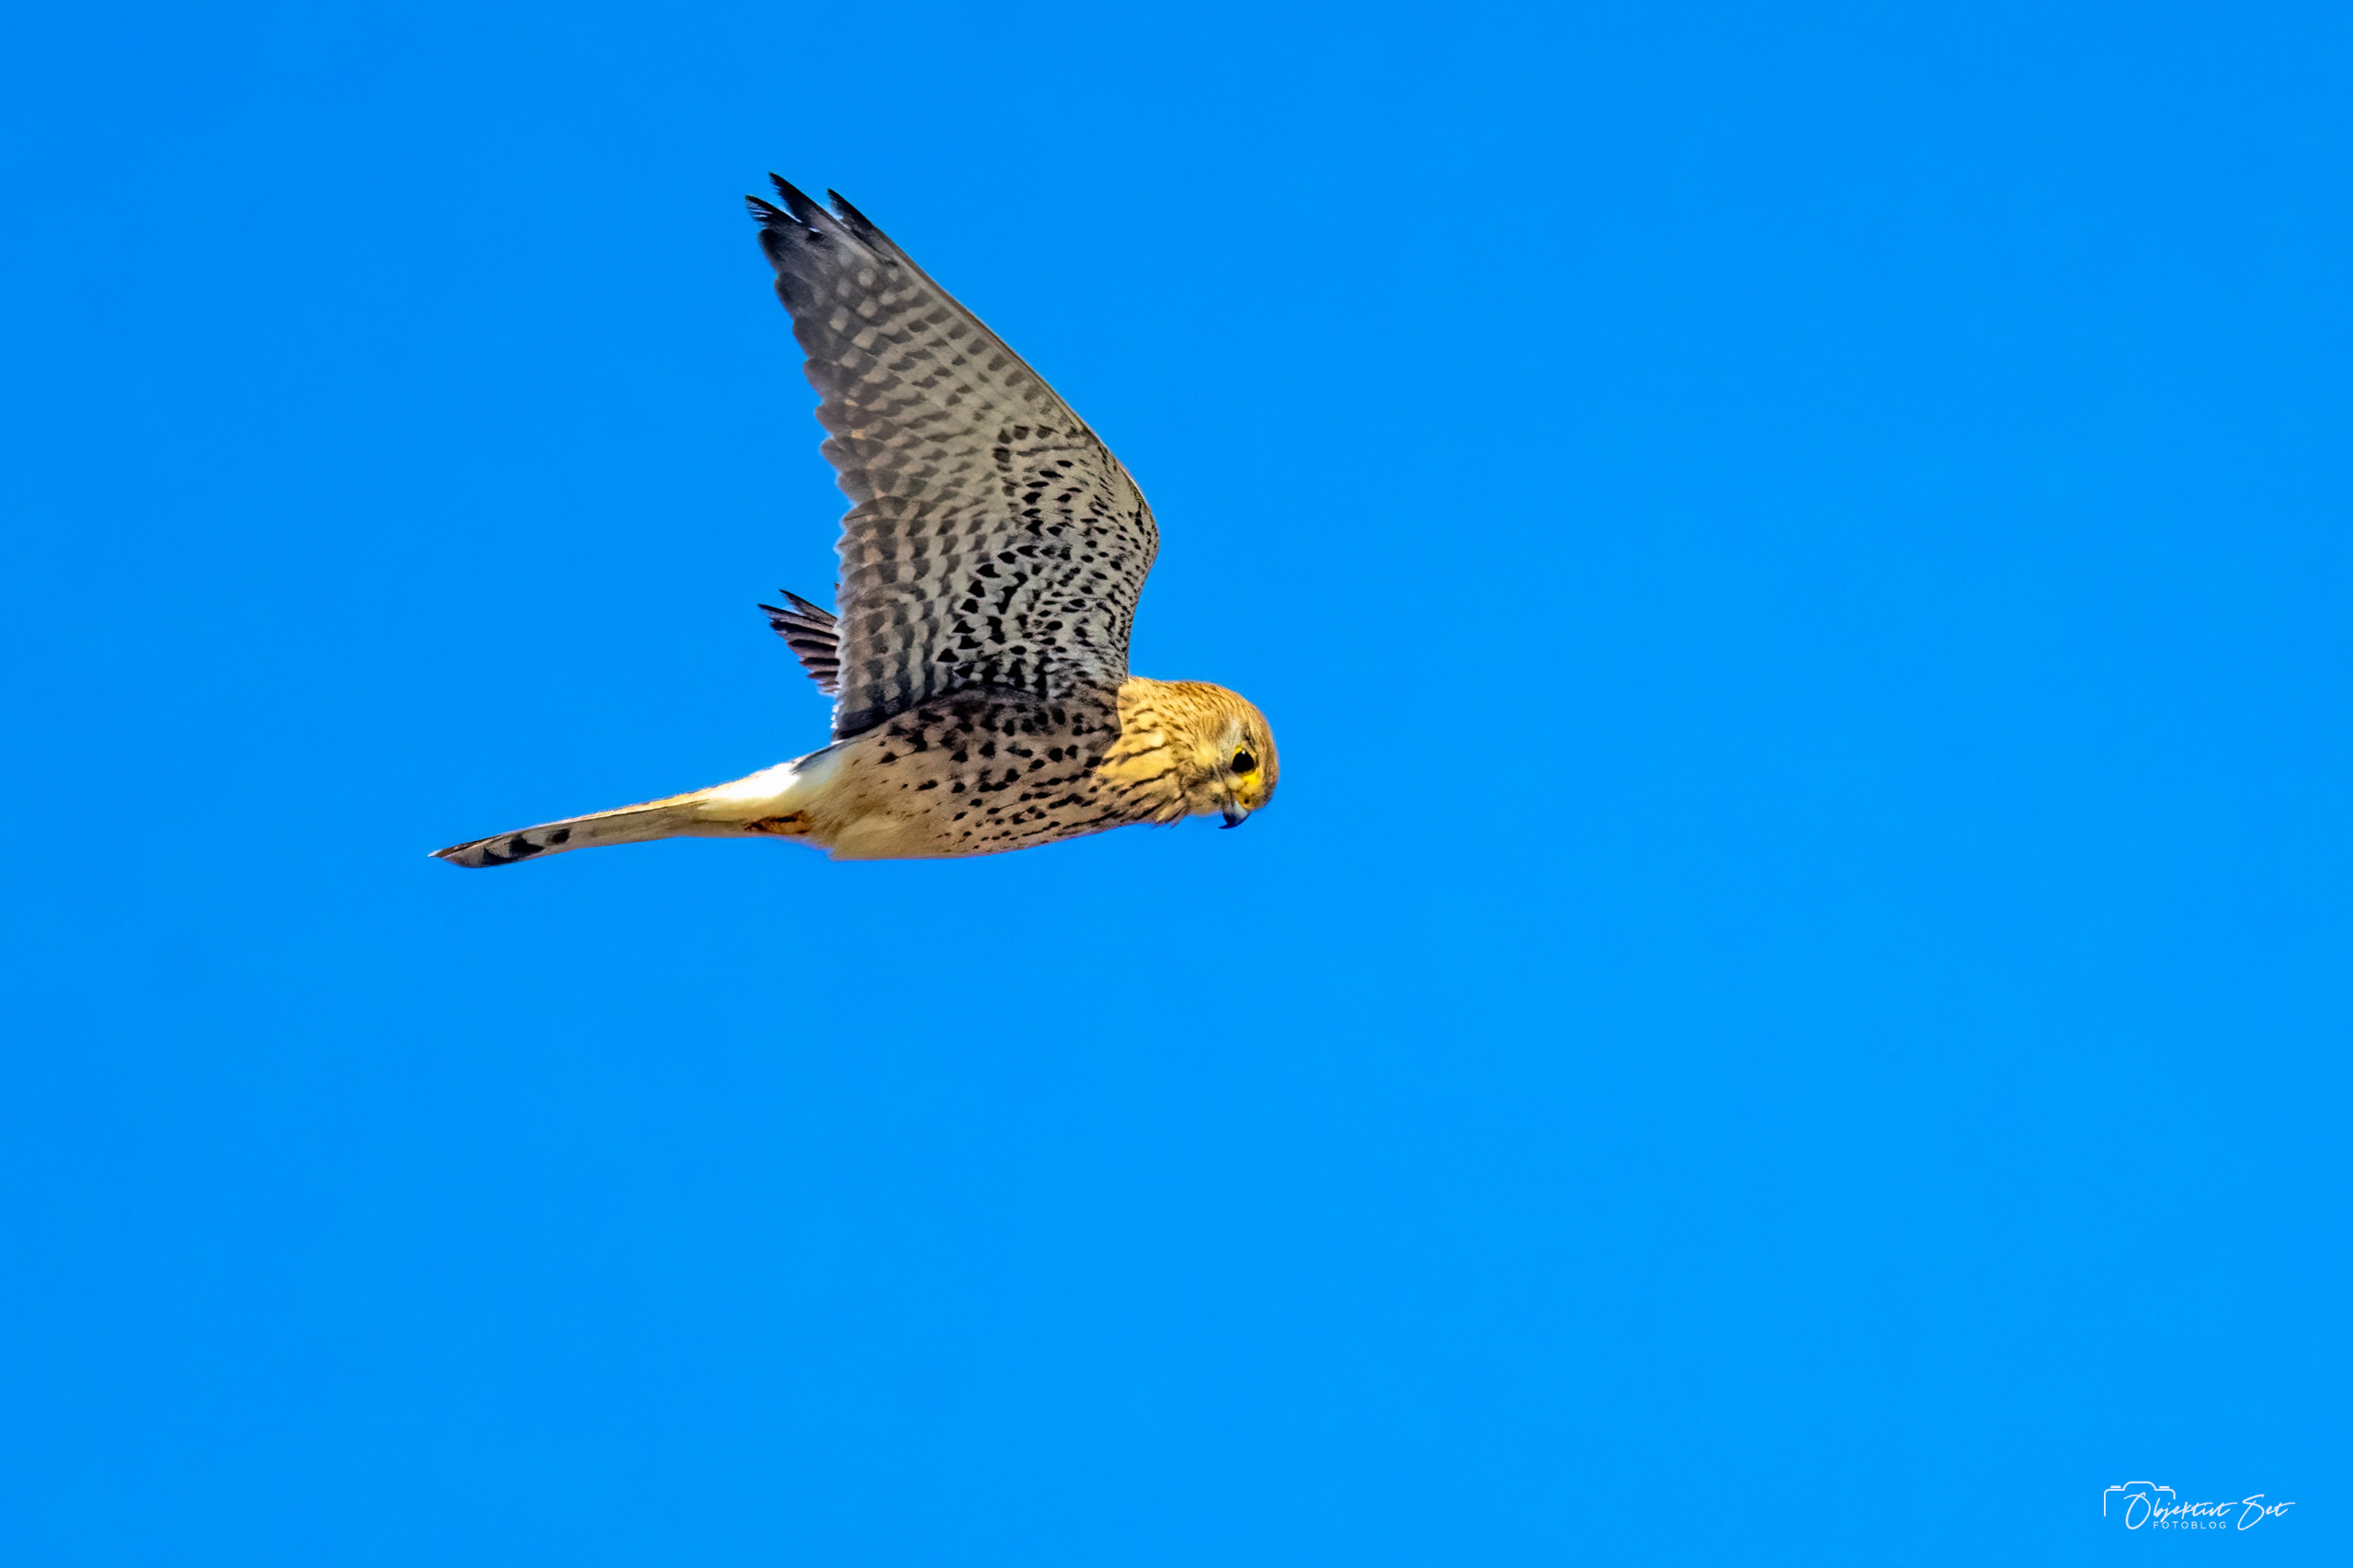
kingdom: Animalia
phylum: Chordata
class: Aves
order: Falconiformes
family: Falconidae
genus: Falco
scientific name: Falco tinnunculus
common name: Tårnfalk
